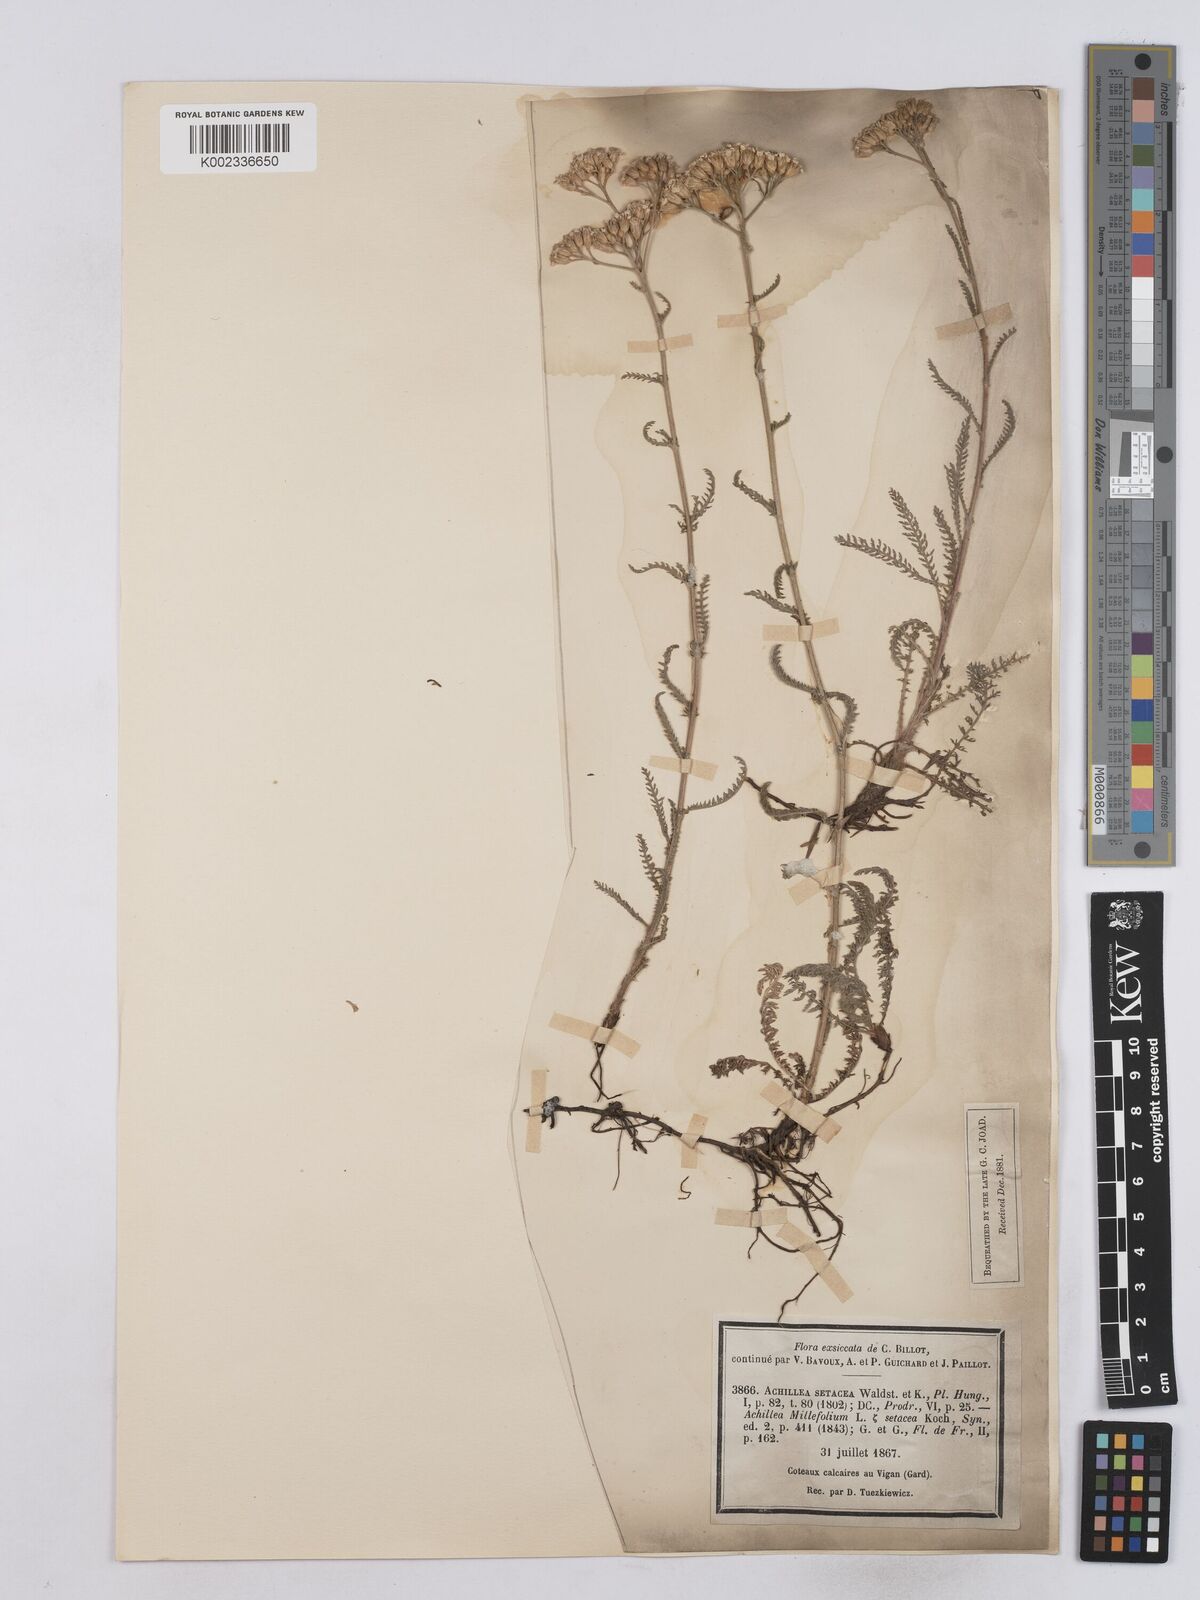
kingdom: Plantae
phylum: Tracheophyta
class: Magnoliopsida
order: Asterales
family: Asteraceae
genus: Achillea
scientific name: Achillea setacea
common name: Bristly yarrow
